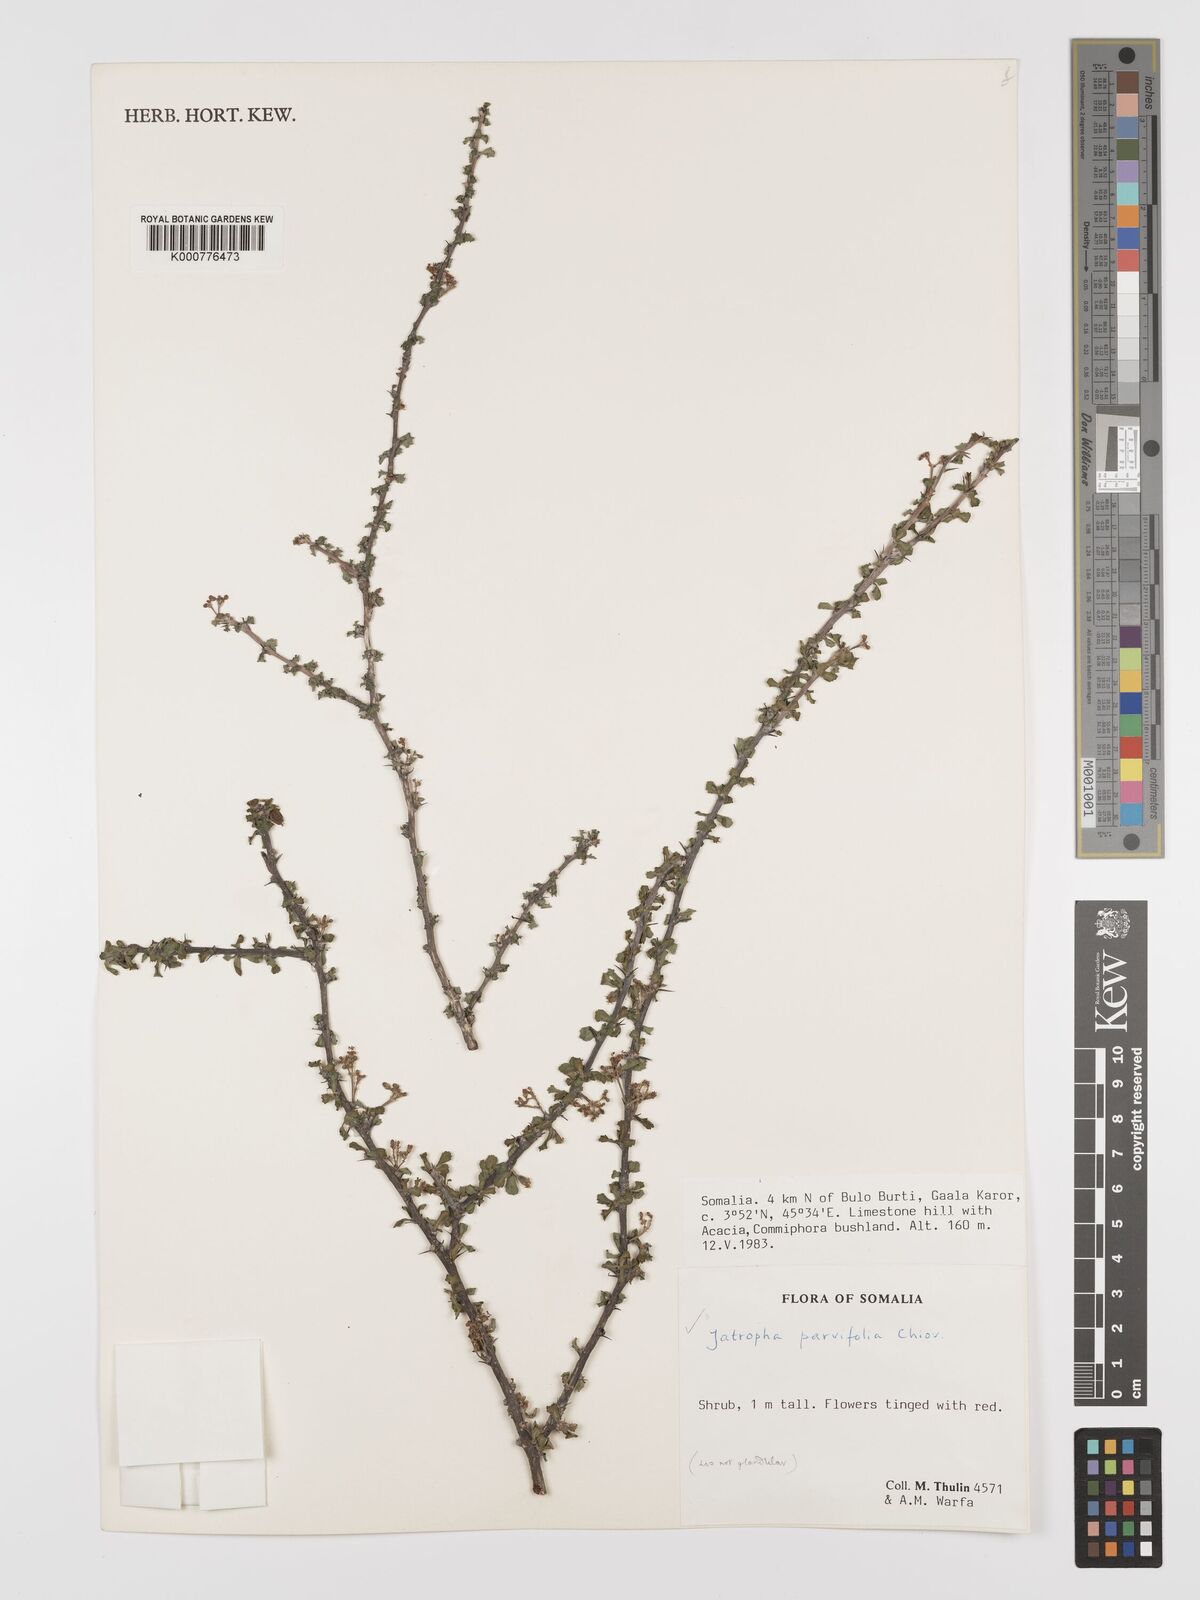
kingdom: Plantae
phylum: Tracheophyta
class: Magnoliopsida
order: Malpighiales
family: Euphorbiaceae
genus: Jatropha
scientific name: Jatropha rivae
